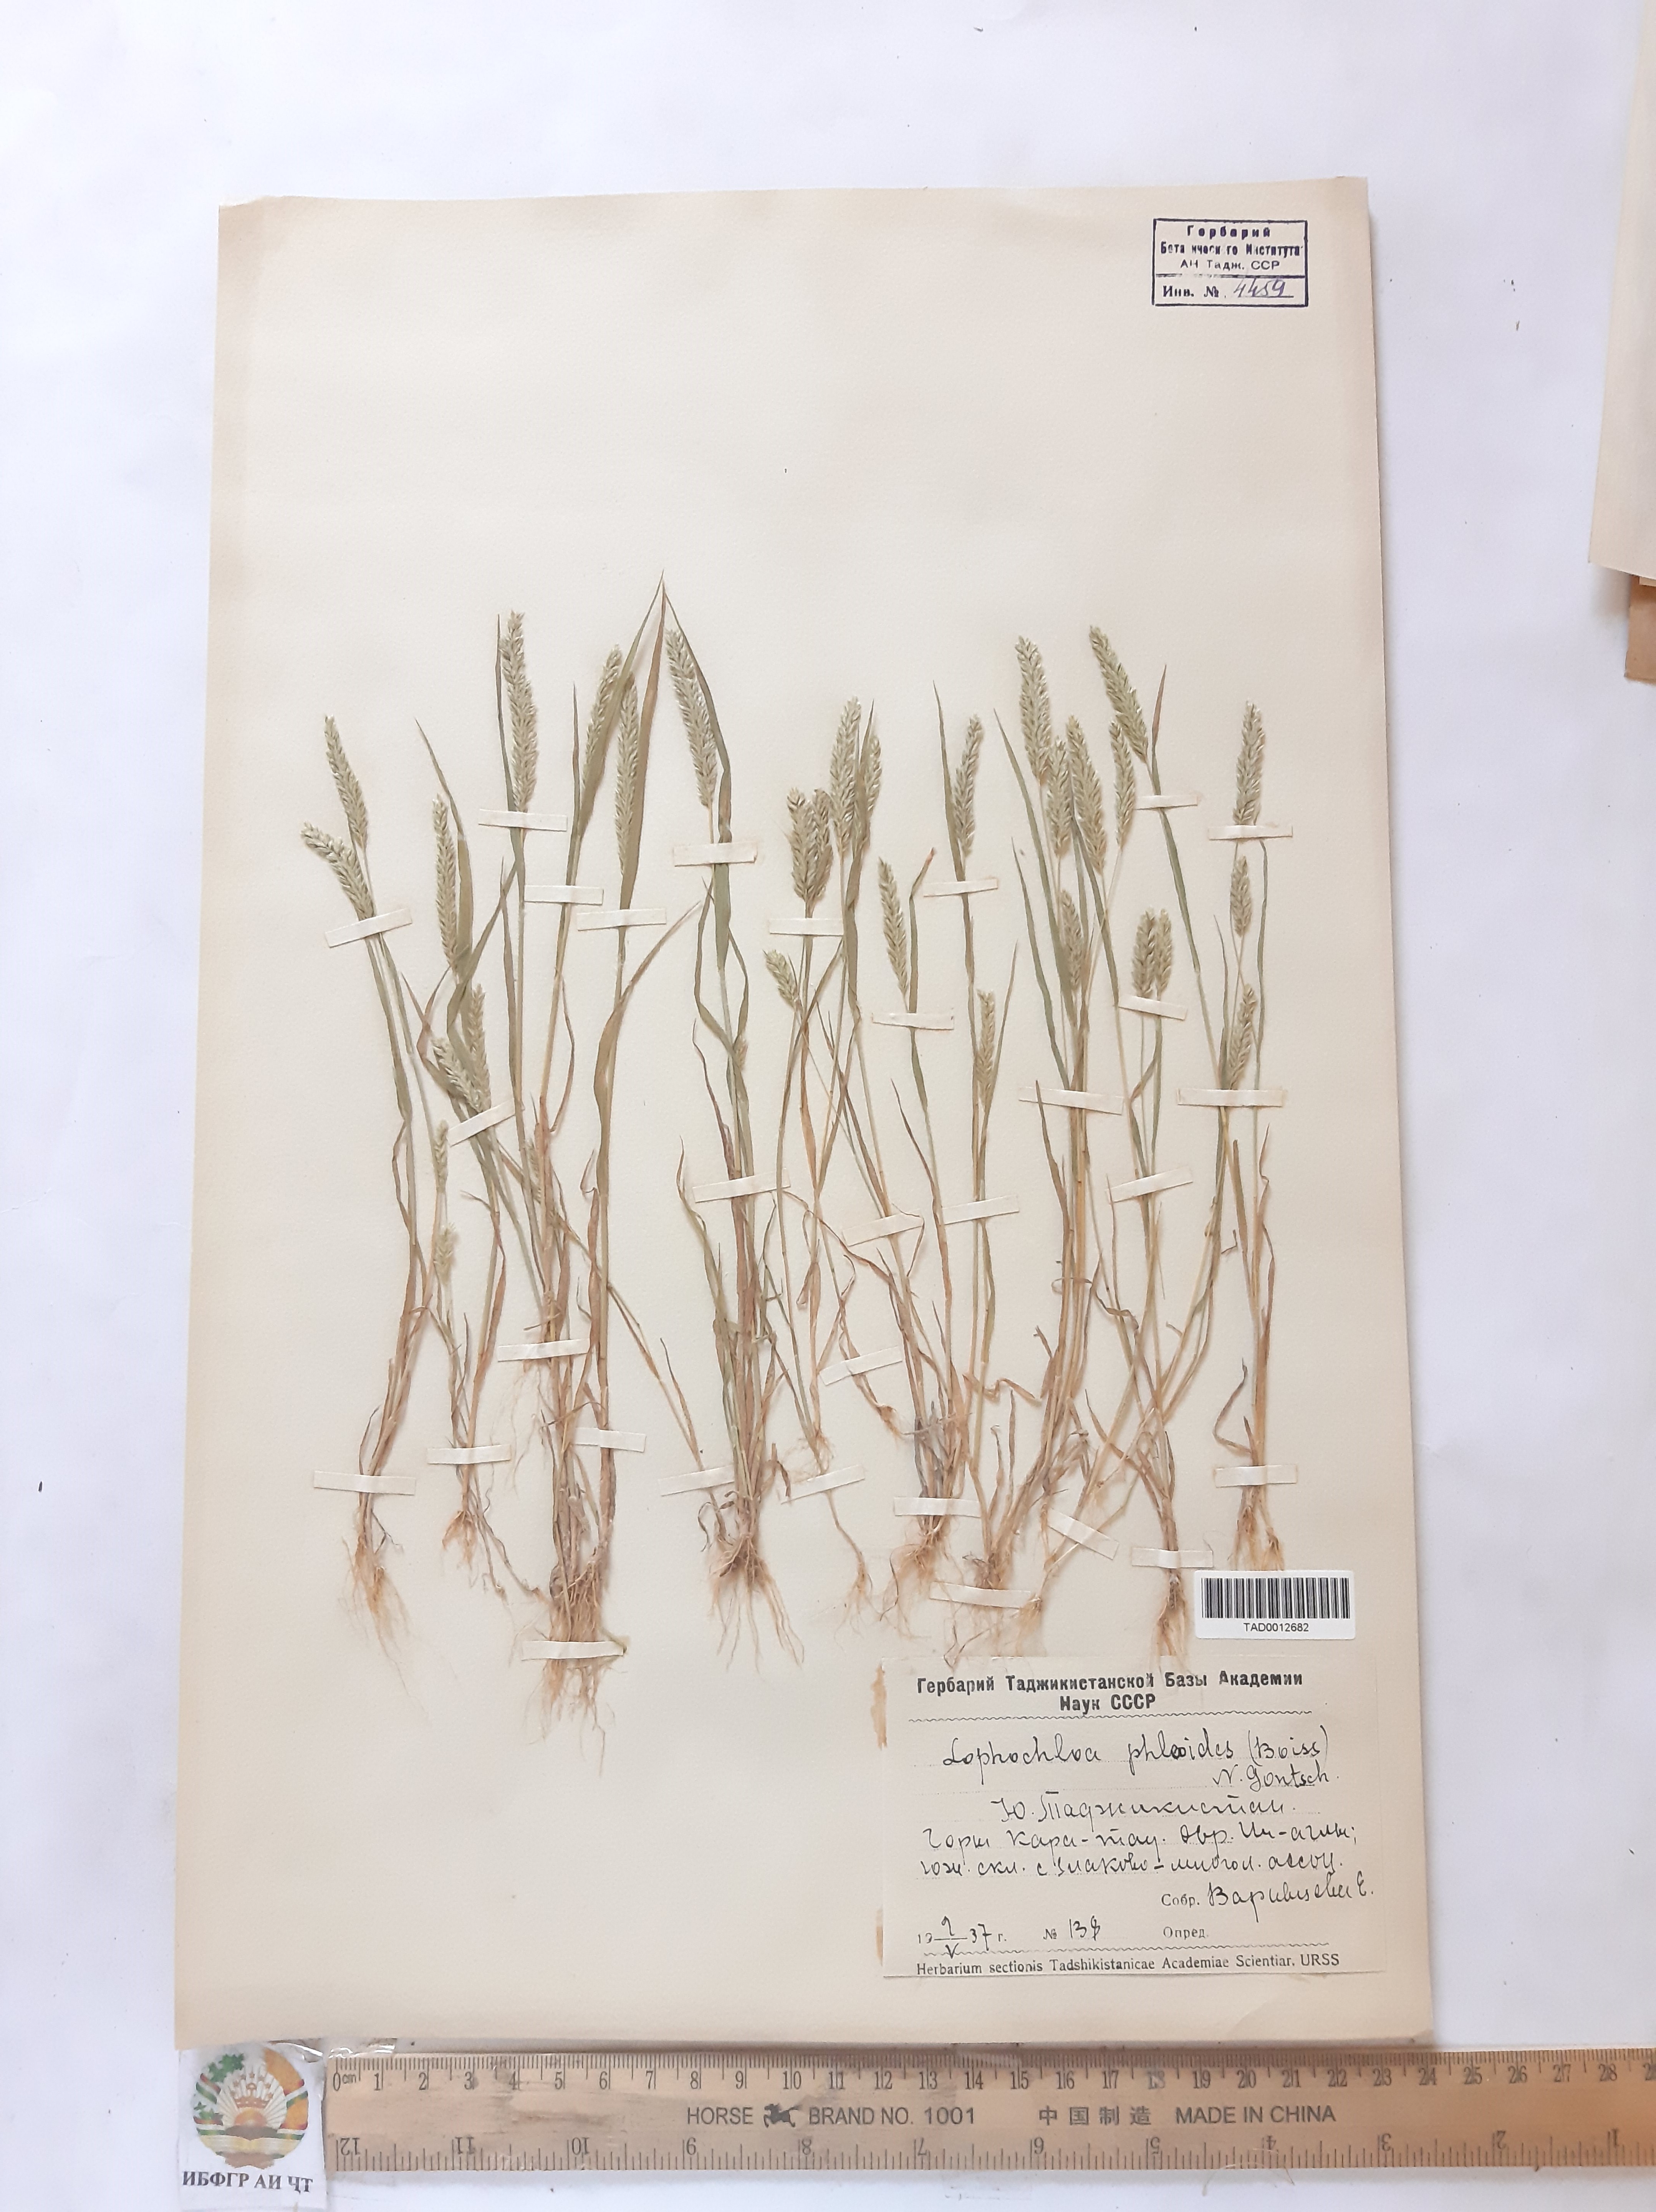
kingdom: Plantae
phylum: Tracheophyta
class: Liliopsida
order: Poales
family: Poaceae
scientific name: Poaceae
